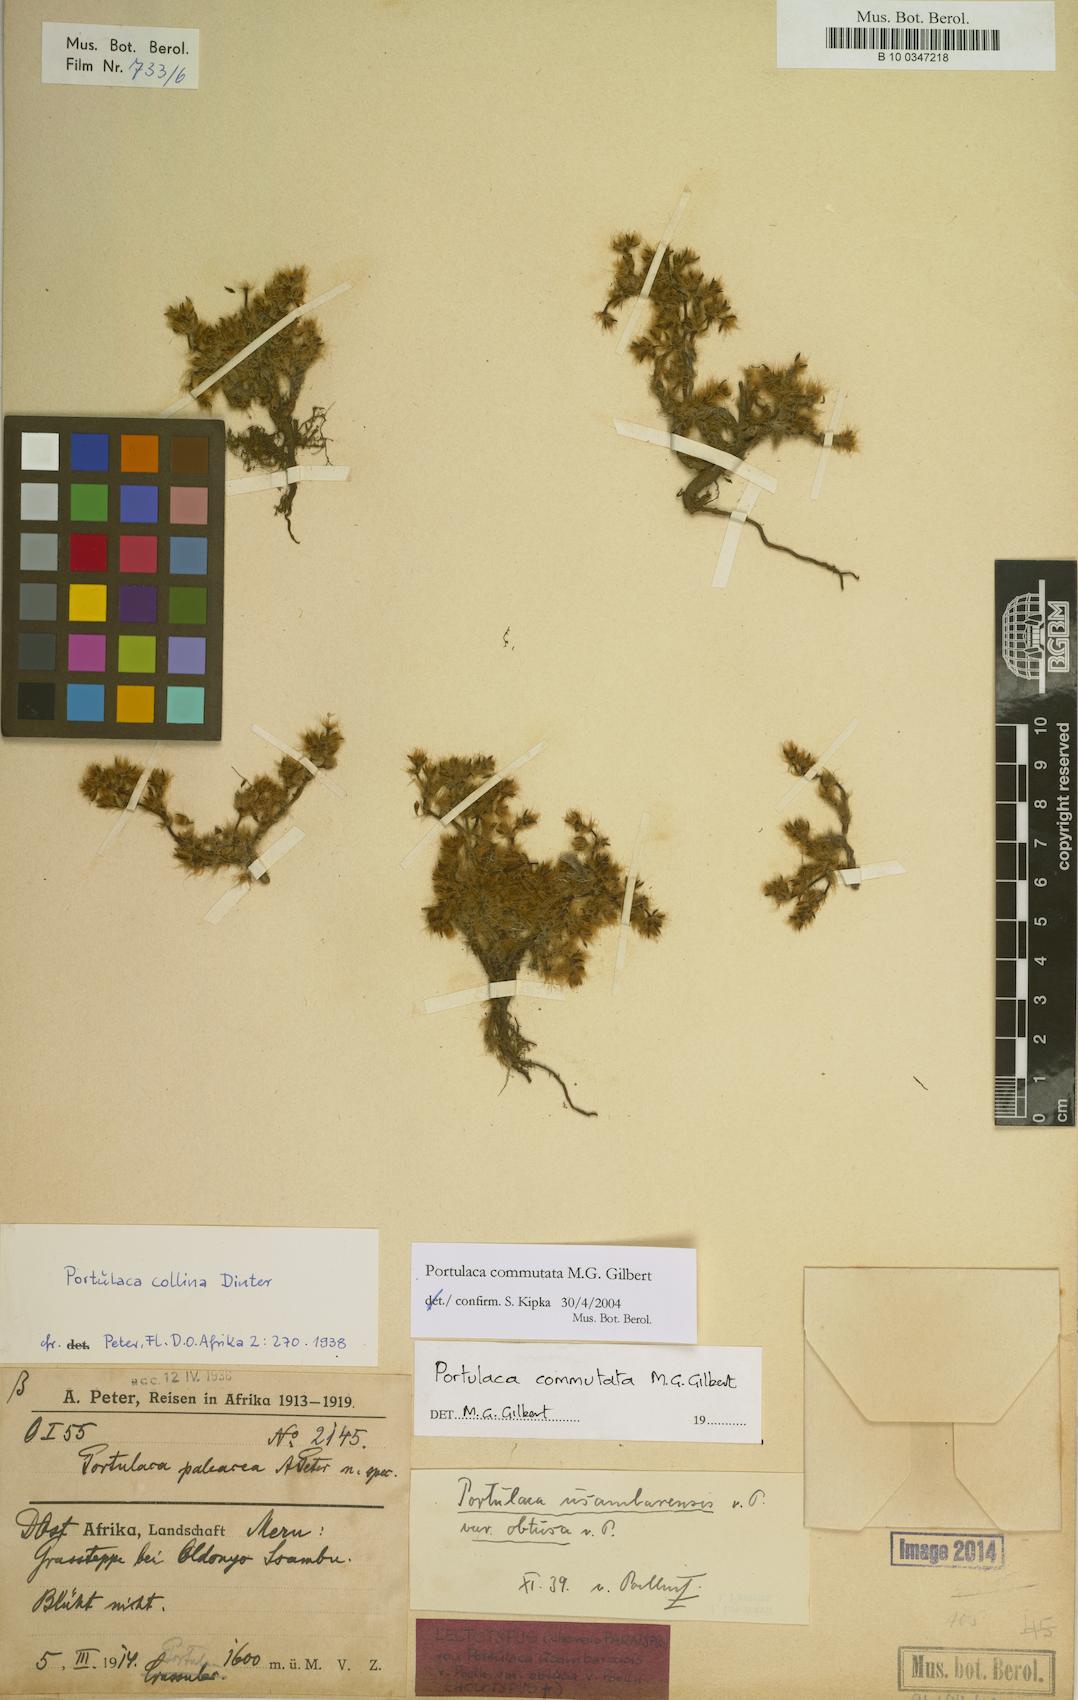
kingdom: Plantae
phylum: Tracheophyta
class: Magnoliopsida
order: Caryophyllales
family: Portulacaceae
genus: Portulaca
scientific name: Portulaca commutata
